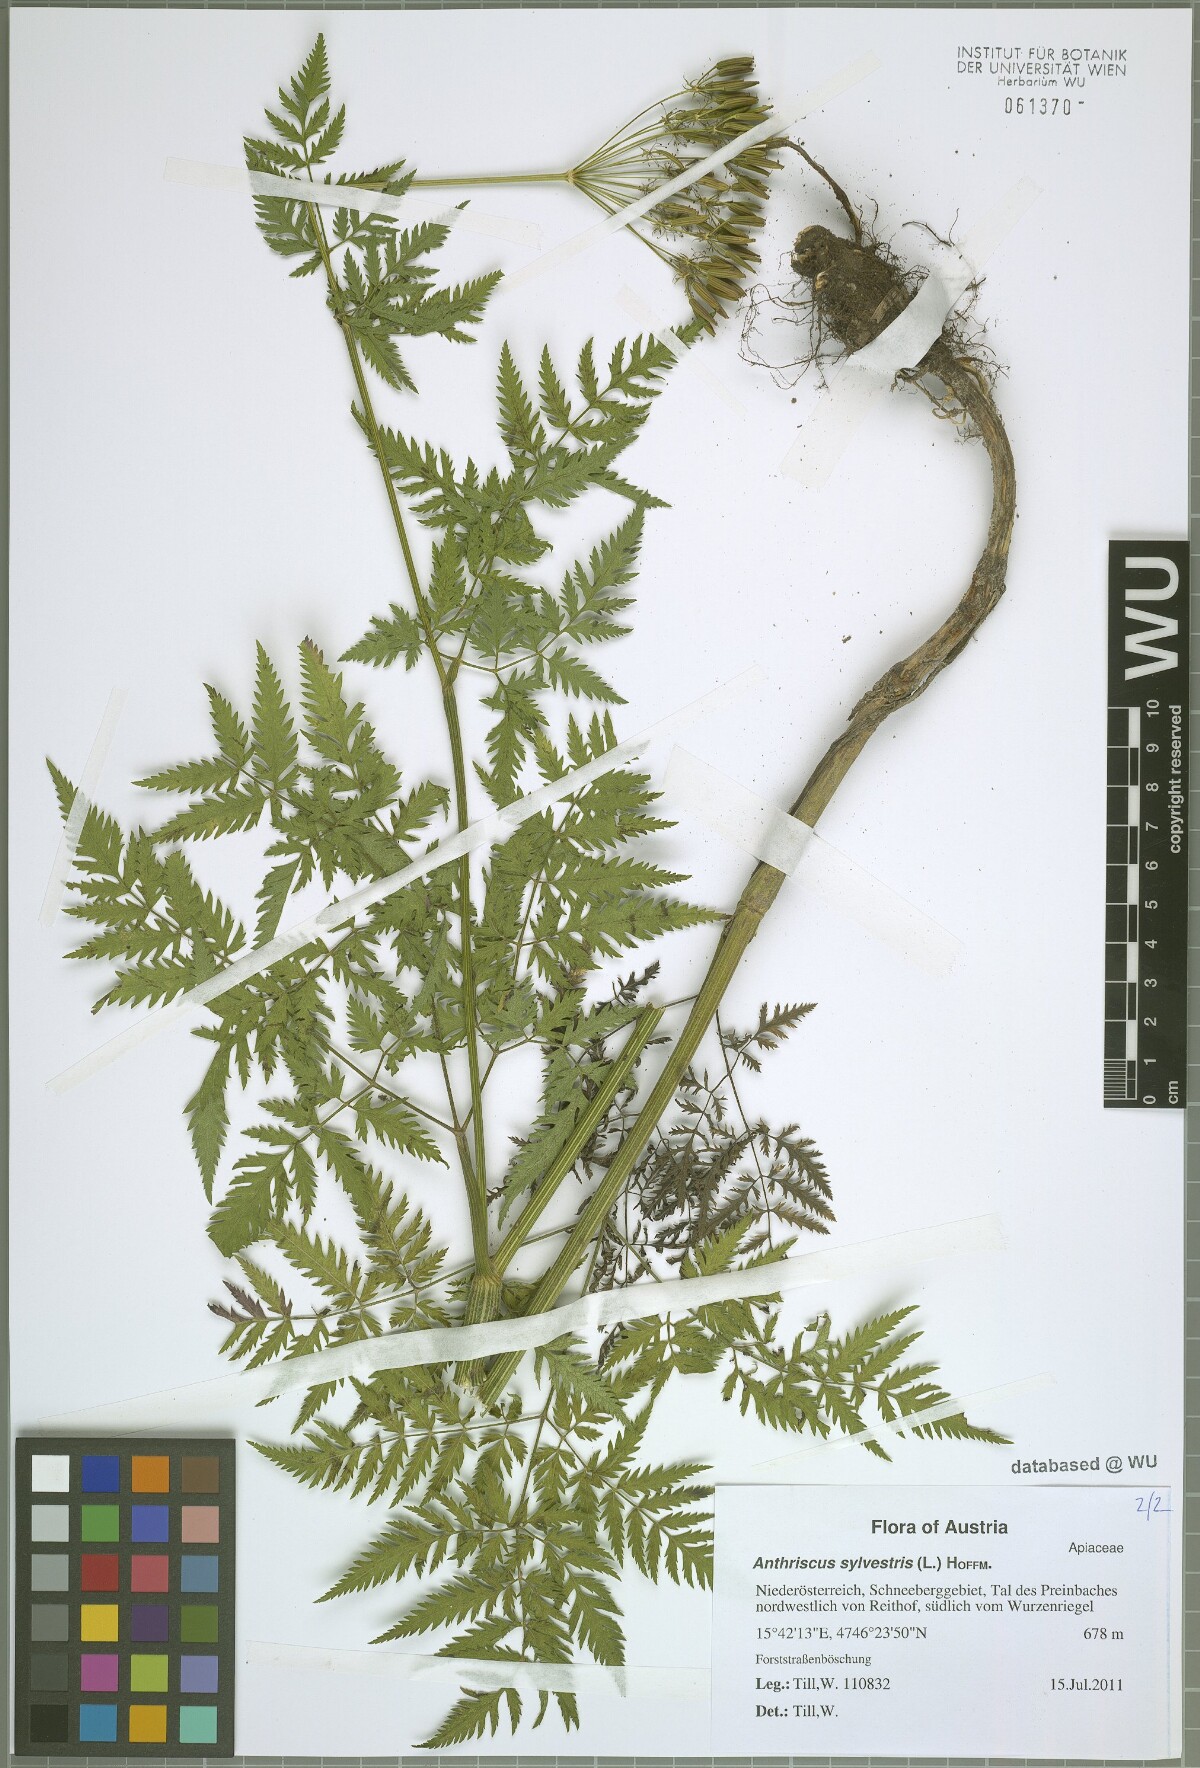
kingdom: Plantae
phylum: Tracheophyta
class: Magnoliopsida
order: Apiales
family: Apiaceae
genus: Anthriscus
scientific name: Anthriscus sylvestris
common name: Cow parsley
